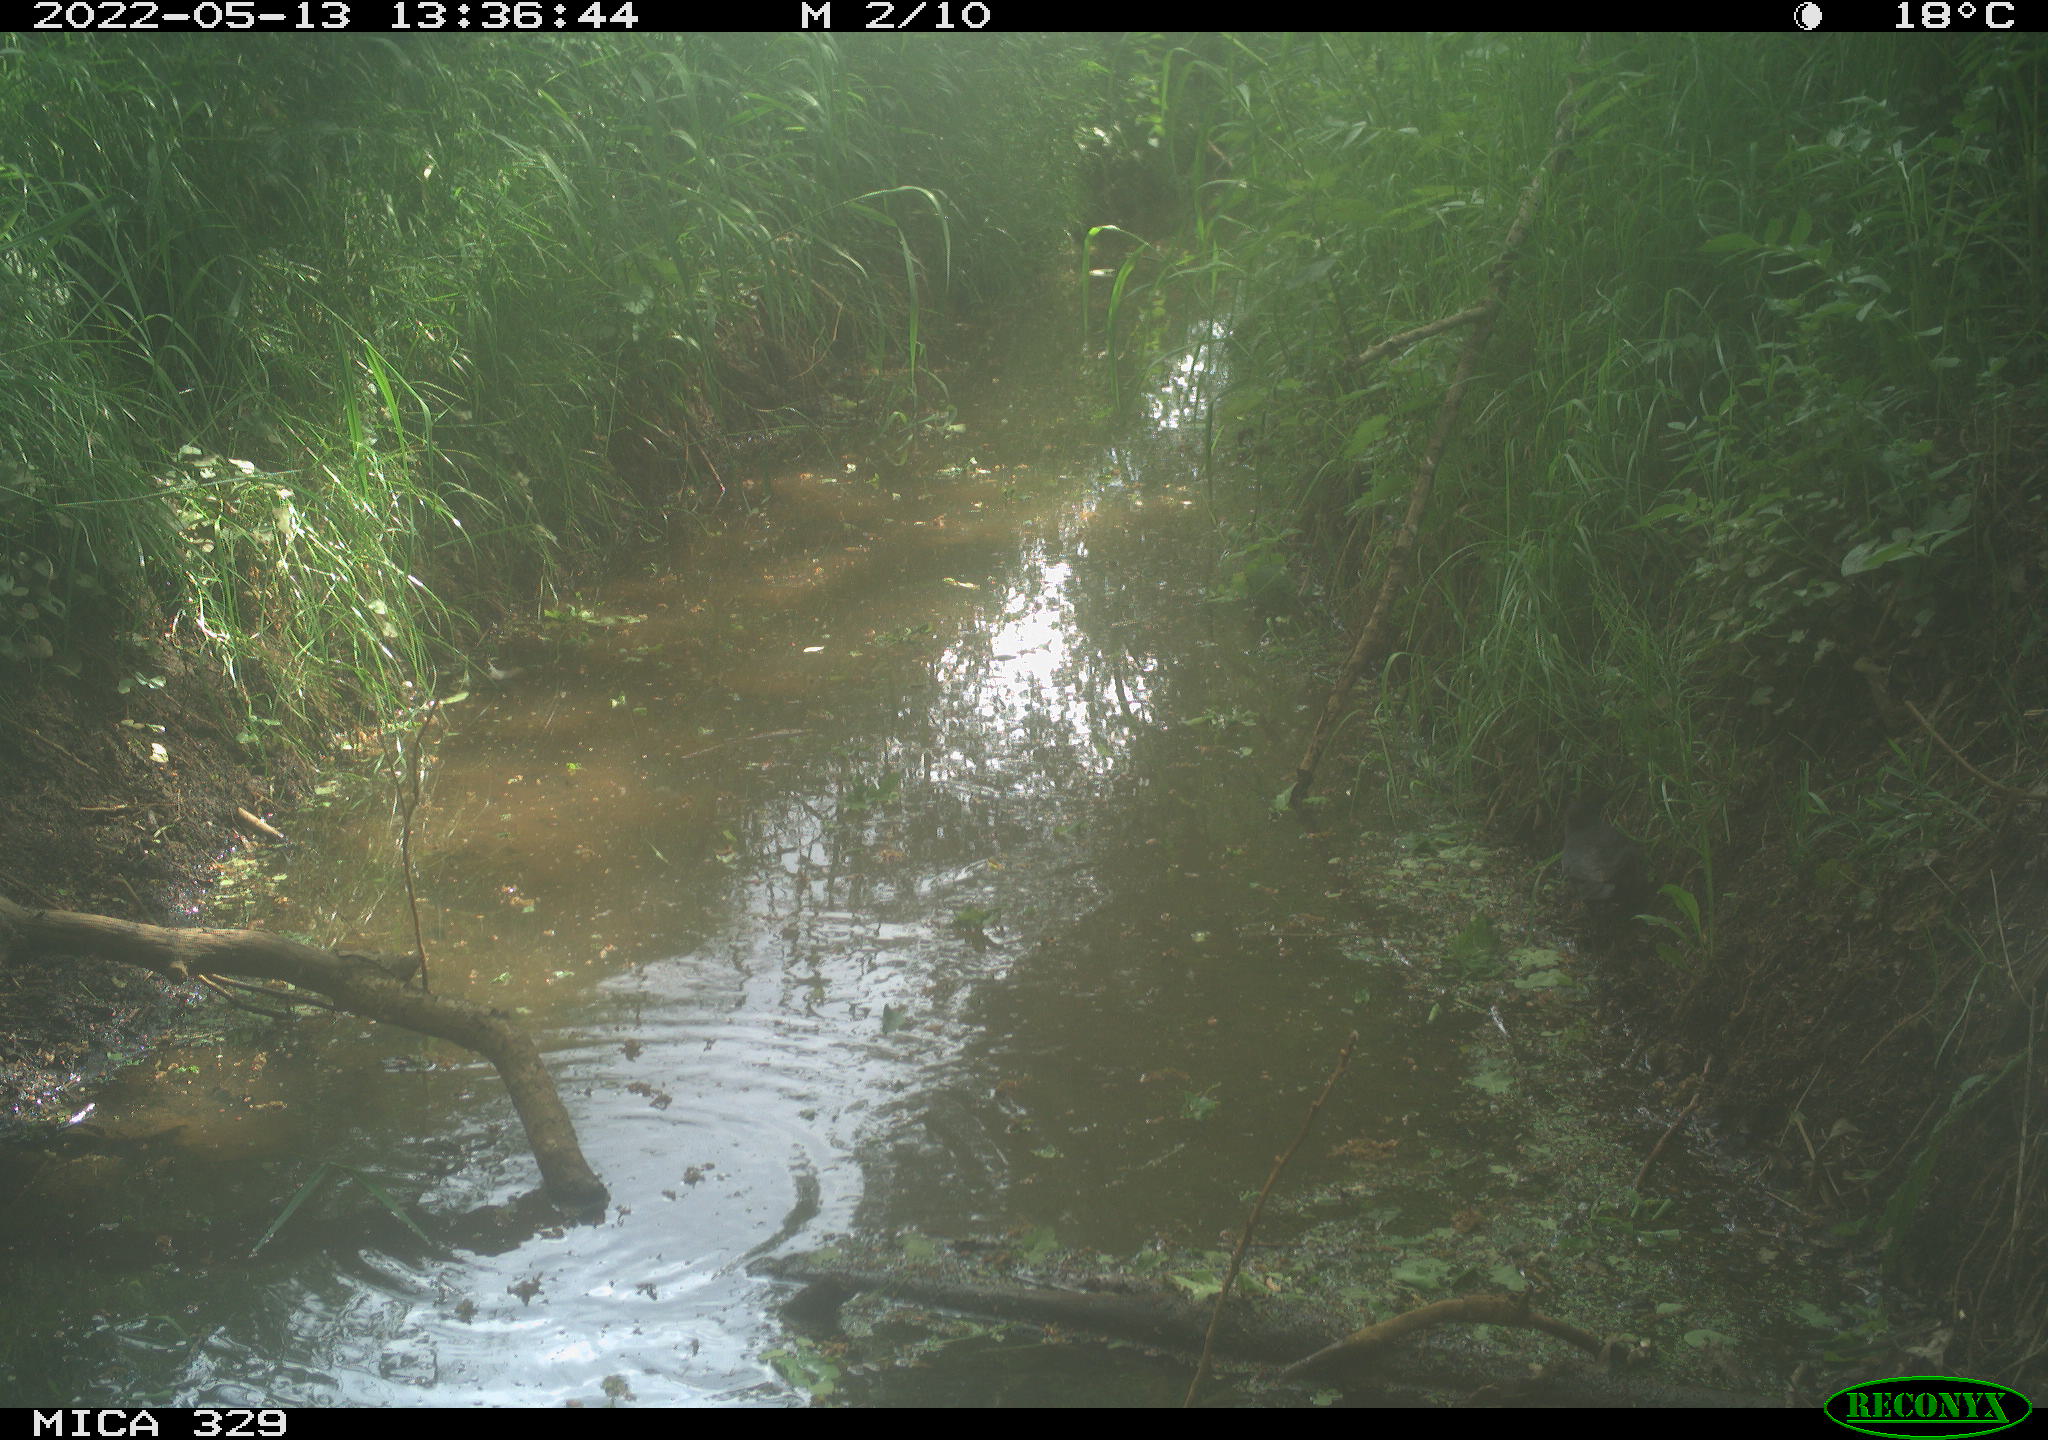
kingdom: Animalia
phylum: Chordata
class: Aves
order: Passeriformes
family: Turdidae
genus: Turdus
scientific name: Turdus merula
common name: Common blackbird
